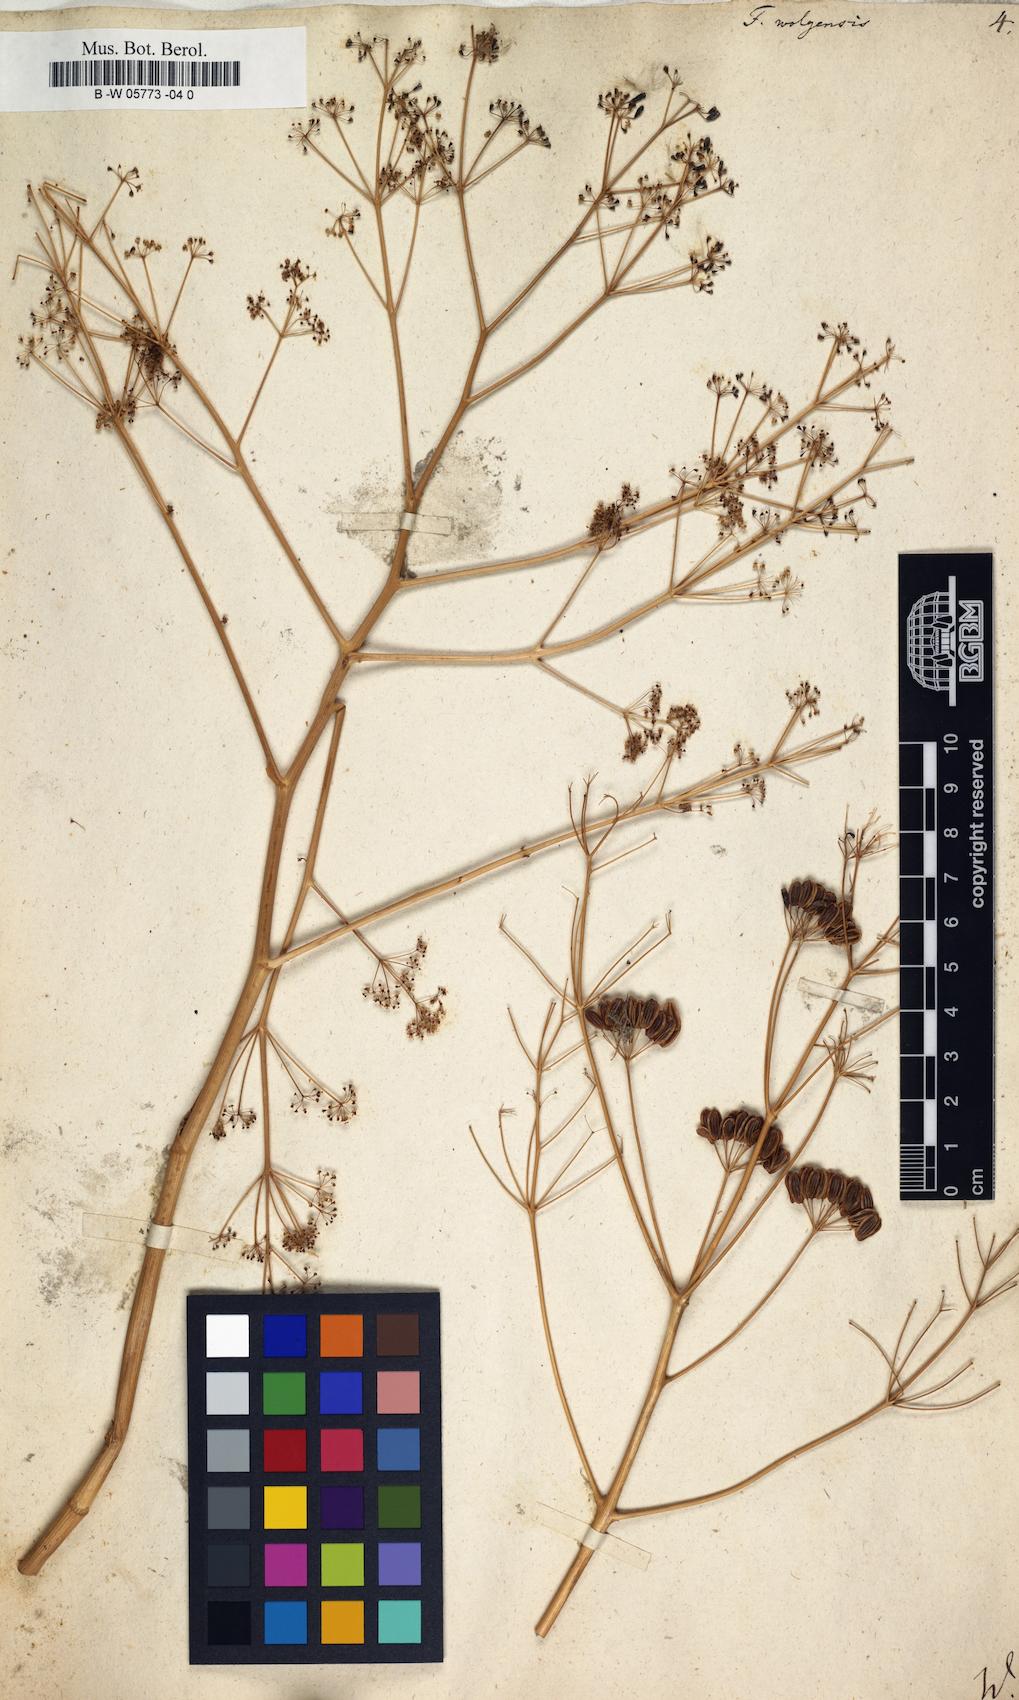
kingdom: Plantae
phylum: Tracheophyta
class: Magnoliopsida
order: Apiales
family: Apiaceae
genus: Ferula
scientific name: Ferula nuda
